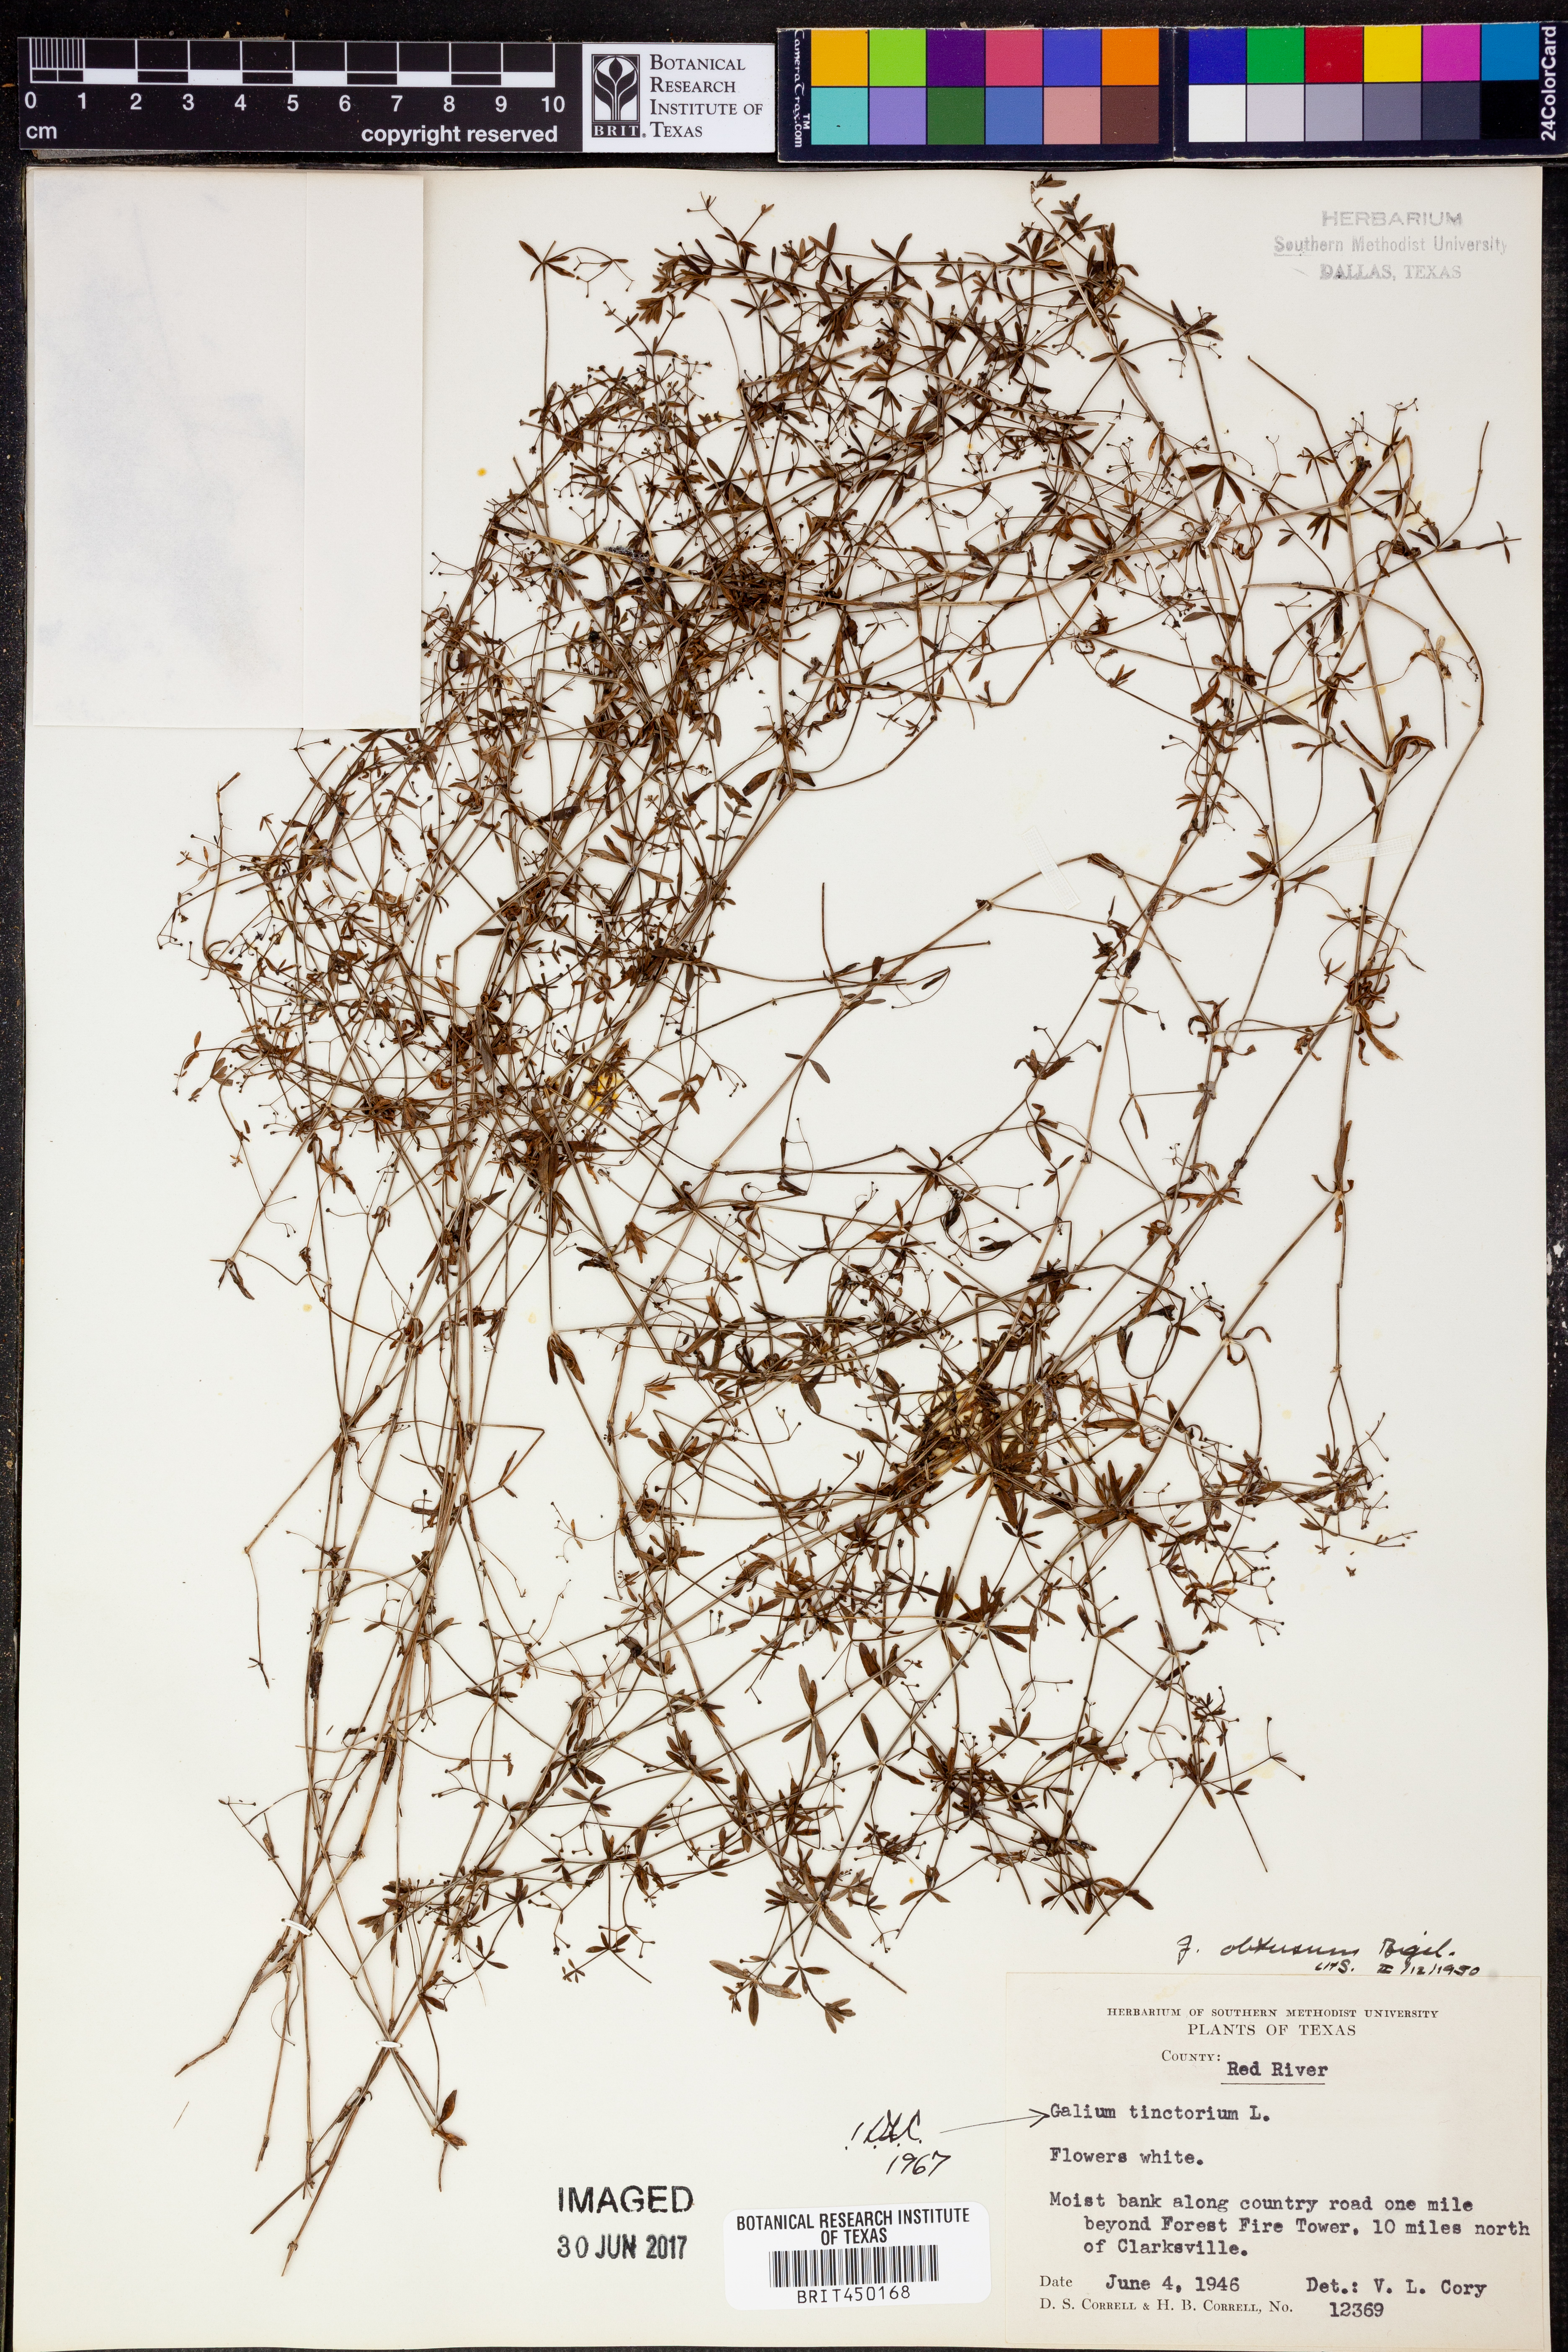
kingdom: Plantae
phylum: Tracheophyta
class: Magnoliopsida
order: Gentianales
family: Rubiaceae
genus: Asperula
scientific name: Asperula tinctoria
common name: Dyer's woodruff
